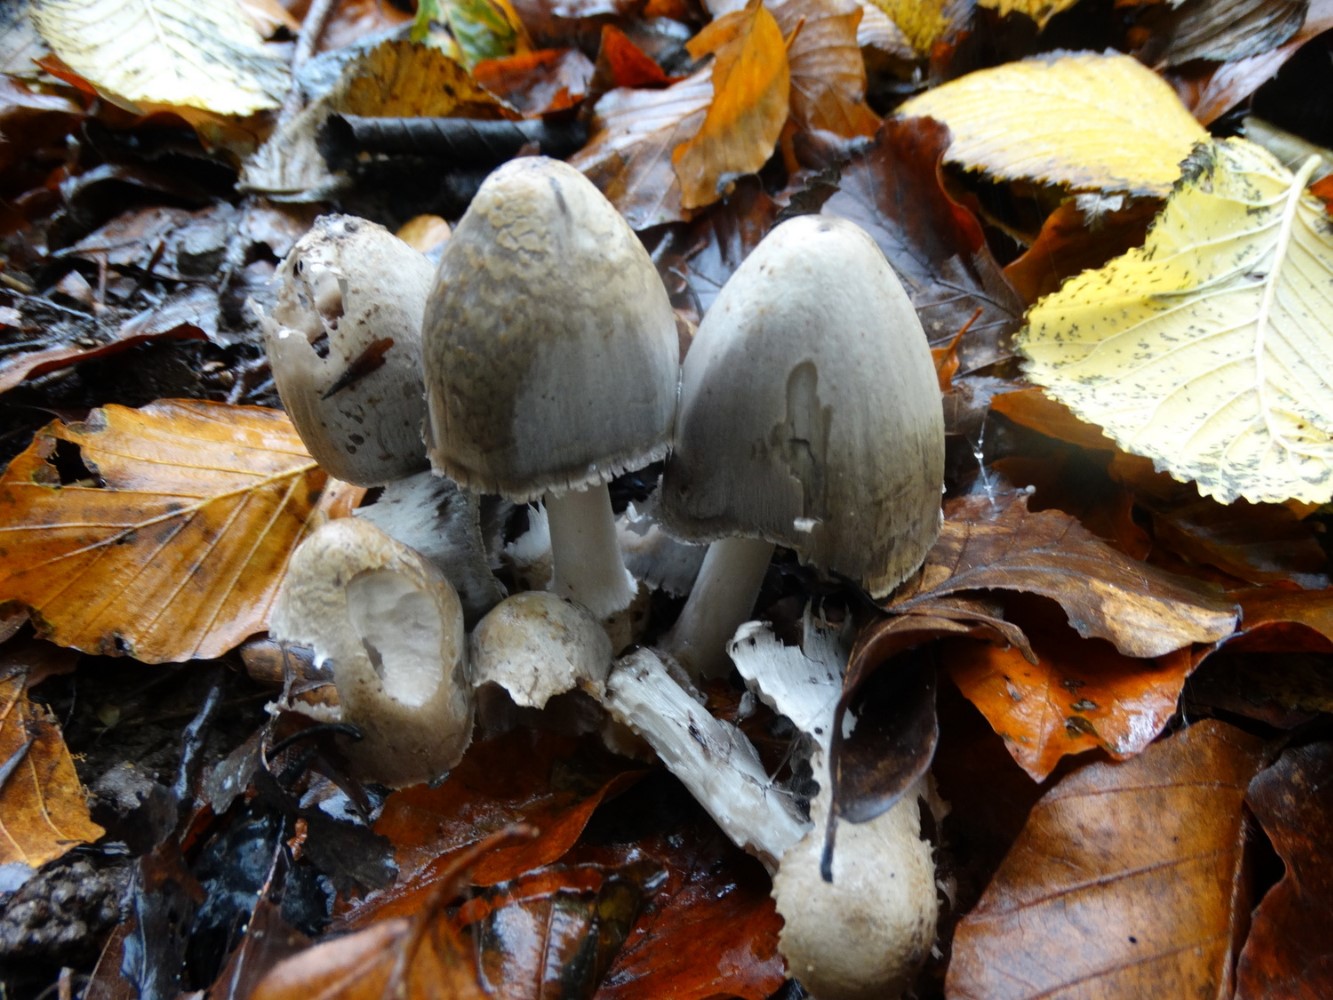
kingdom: Fungi
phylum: Basidiomycota
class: Agaricomycetes
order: Agaricales
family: Psathyrellaceae
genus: Coprinopsis
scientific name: Coprinopsis atramentaria
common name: almindelig blækhat
